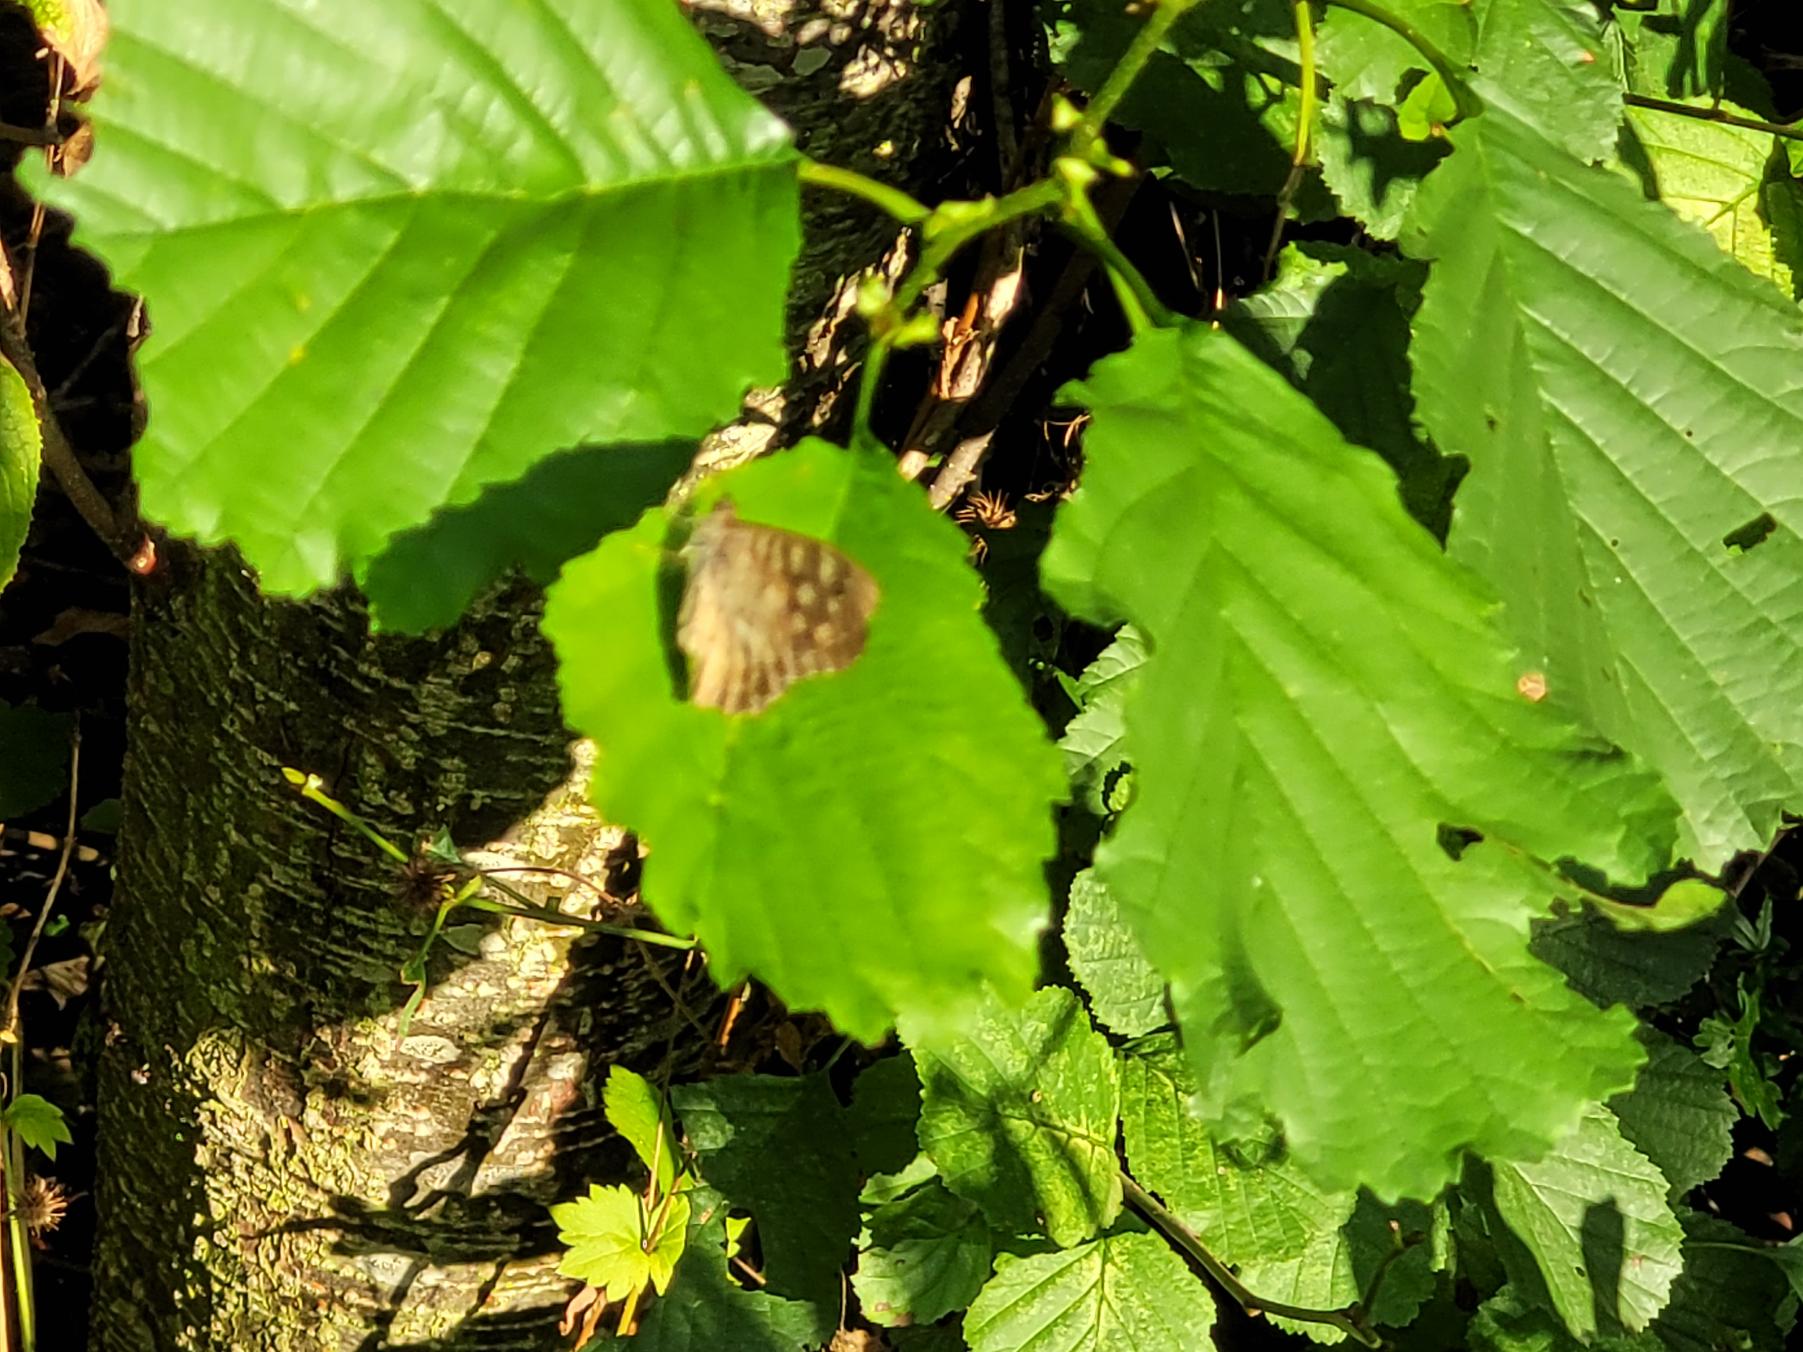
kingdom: Animalia
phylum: Arthropoda
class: Insecta
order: Lepidoptera
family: Nymphalidae
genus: Pararge
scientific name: Pararge aegeria
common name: Skovrandøje
